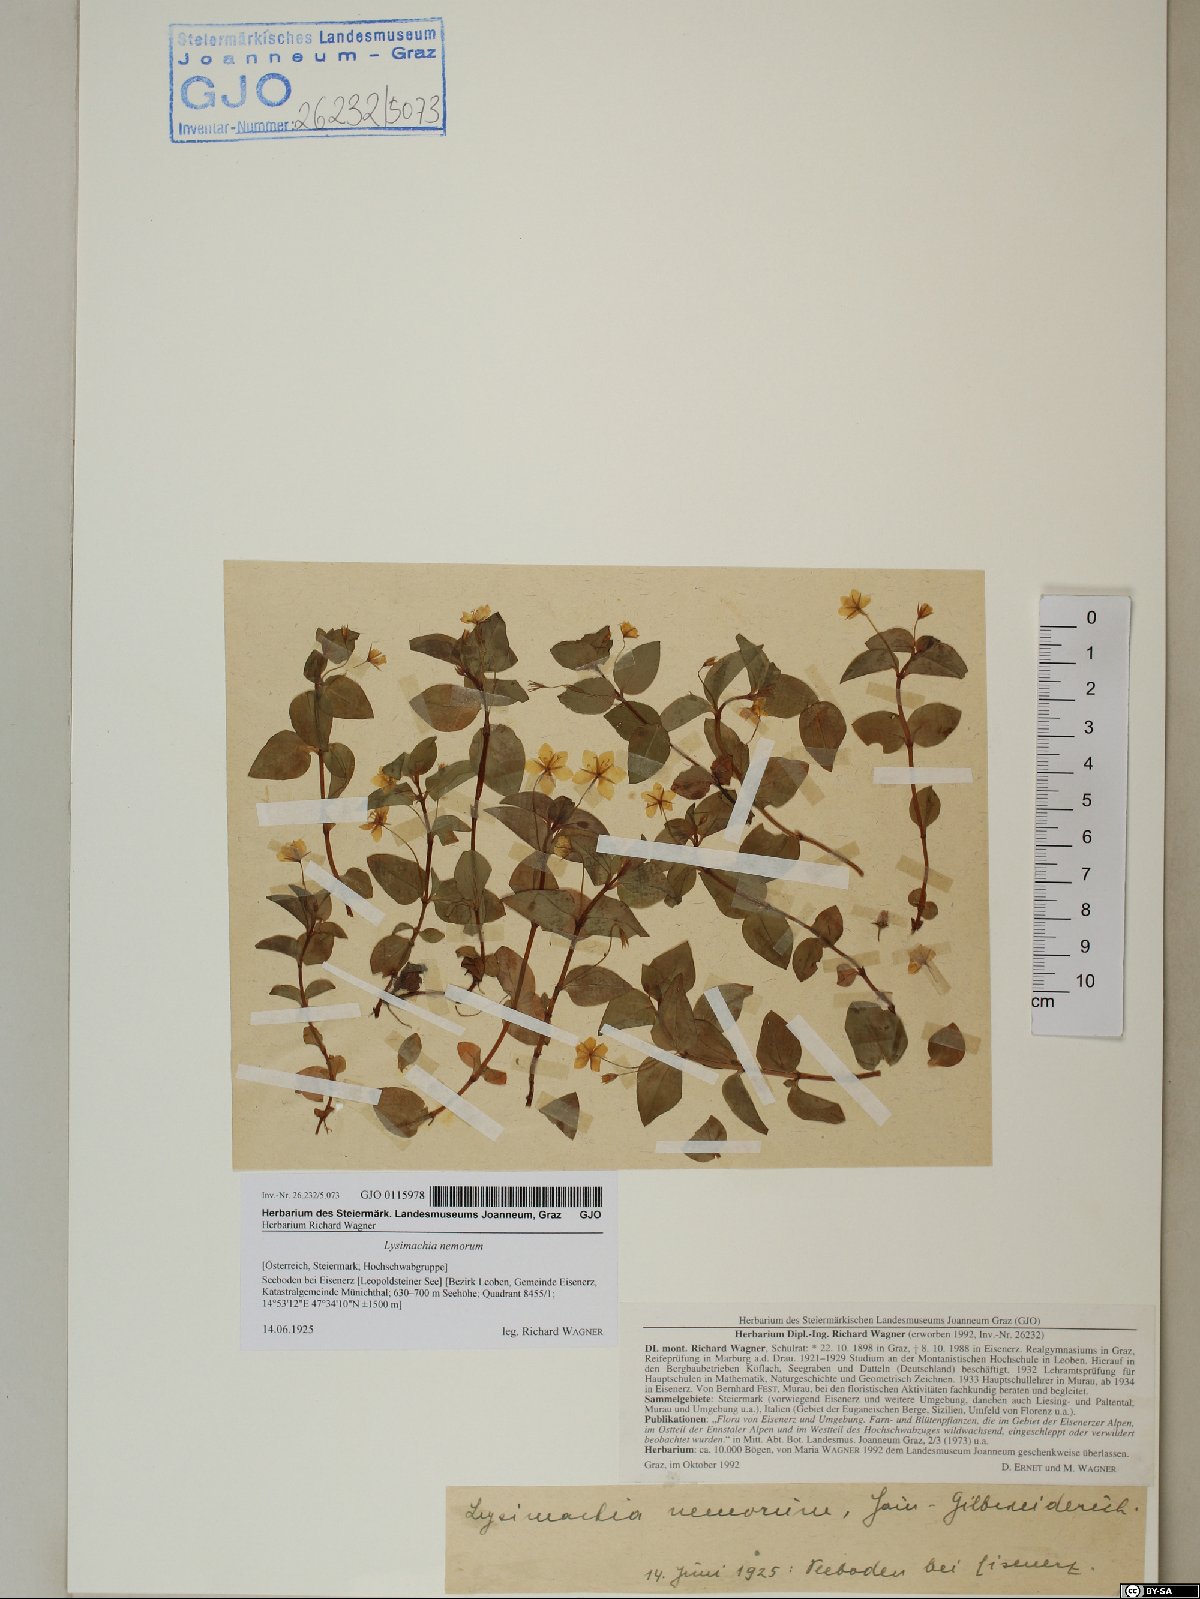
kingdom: Plantae
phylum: Tracheophyta
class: Magnoliopsida
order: Ericales
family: Primulaceae
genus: Lysimachia
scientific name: Lysimachia nemorum
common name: Yellow pimpernel
